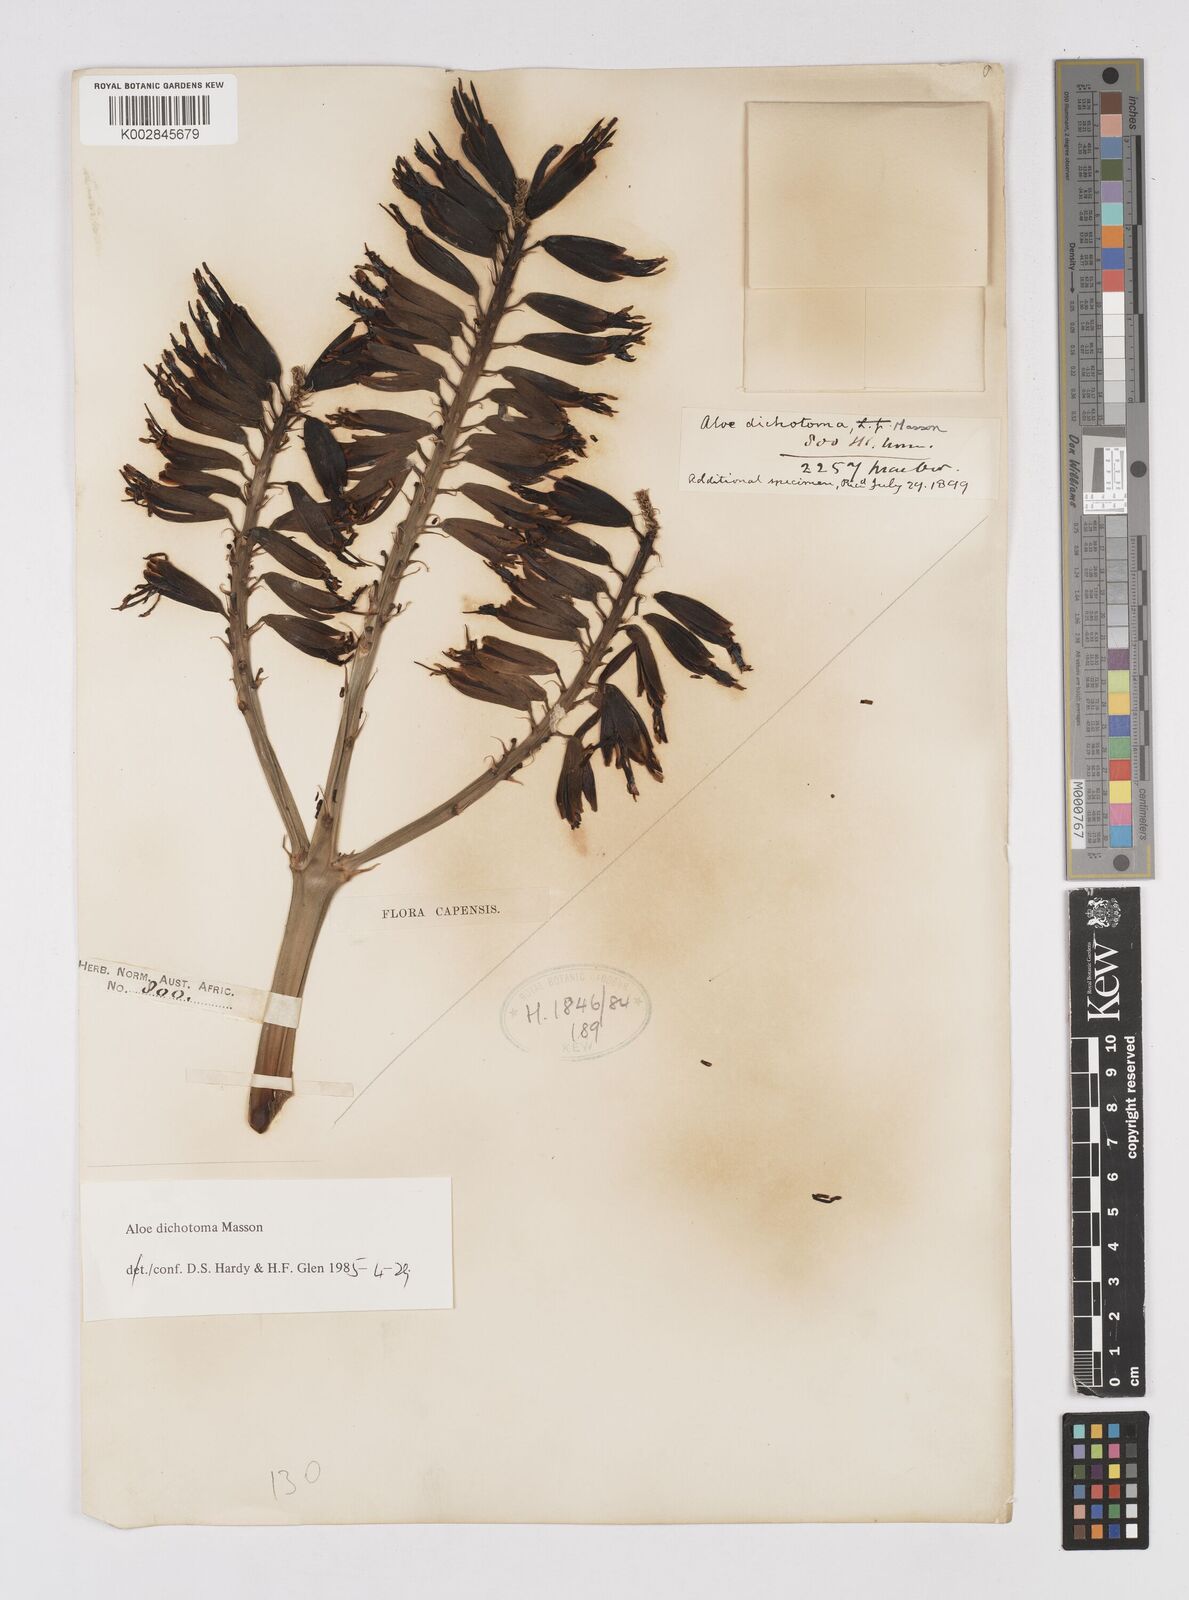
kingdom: Plantae
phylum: Tracheophyta
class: Liliopsida
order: Asparagales
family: Asphodelaceae
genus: Aloidendron
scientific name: Aloidendron dichotomum
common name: Quiver tree
